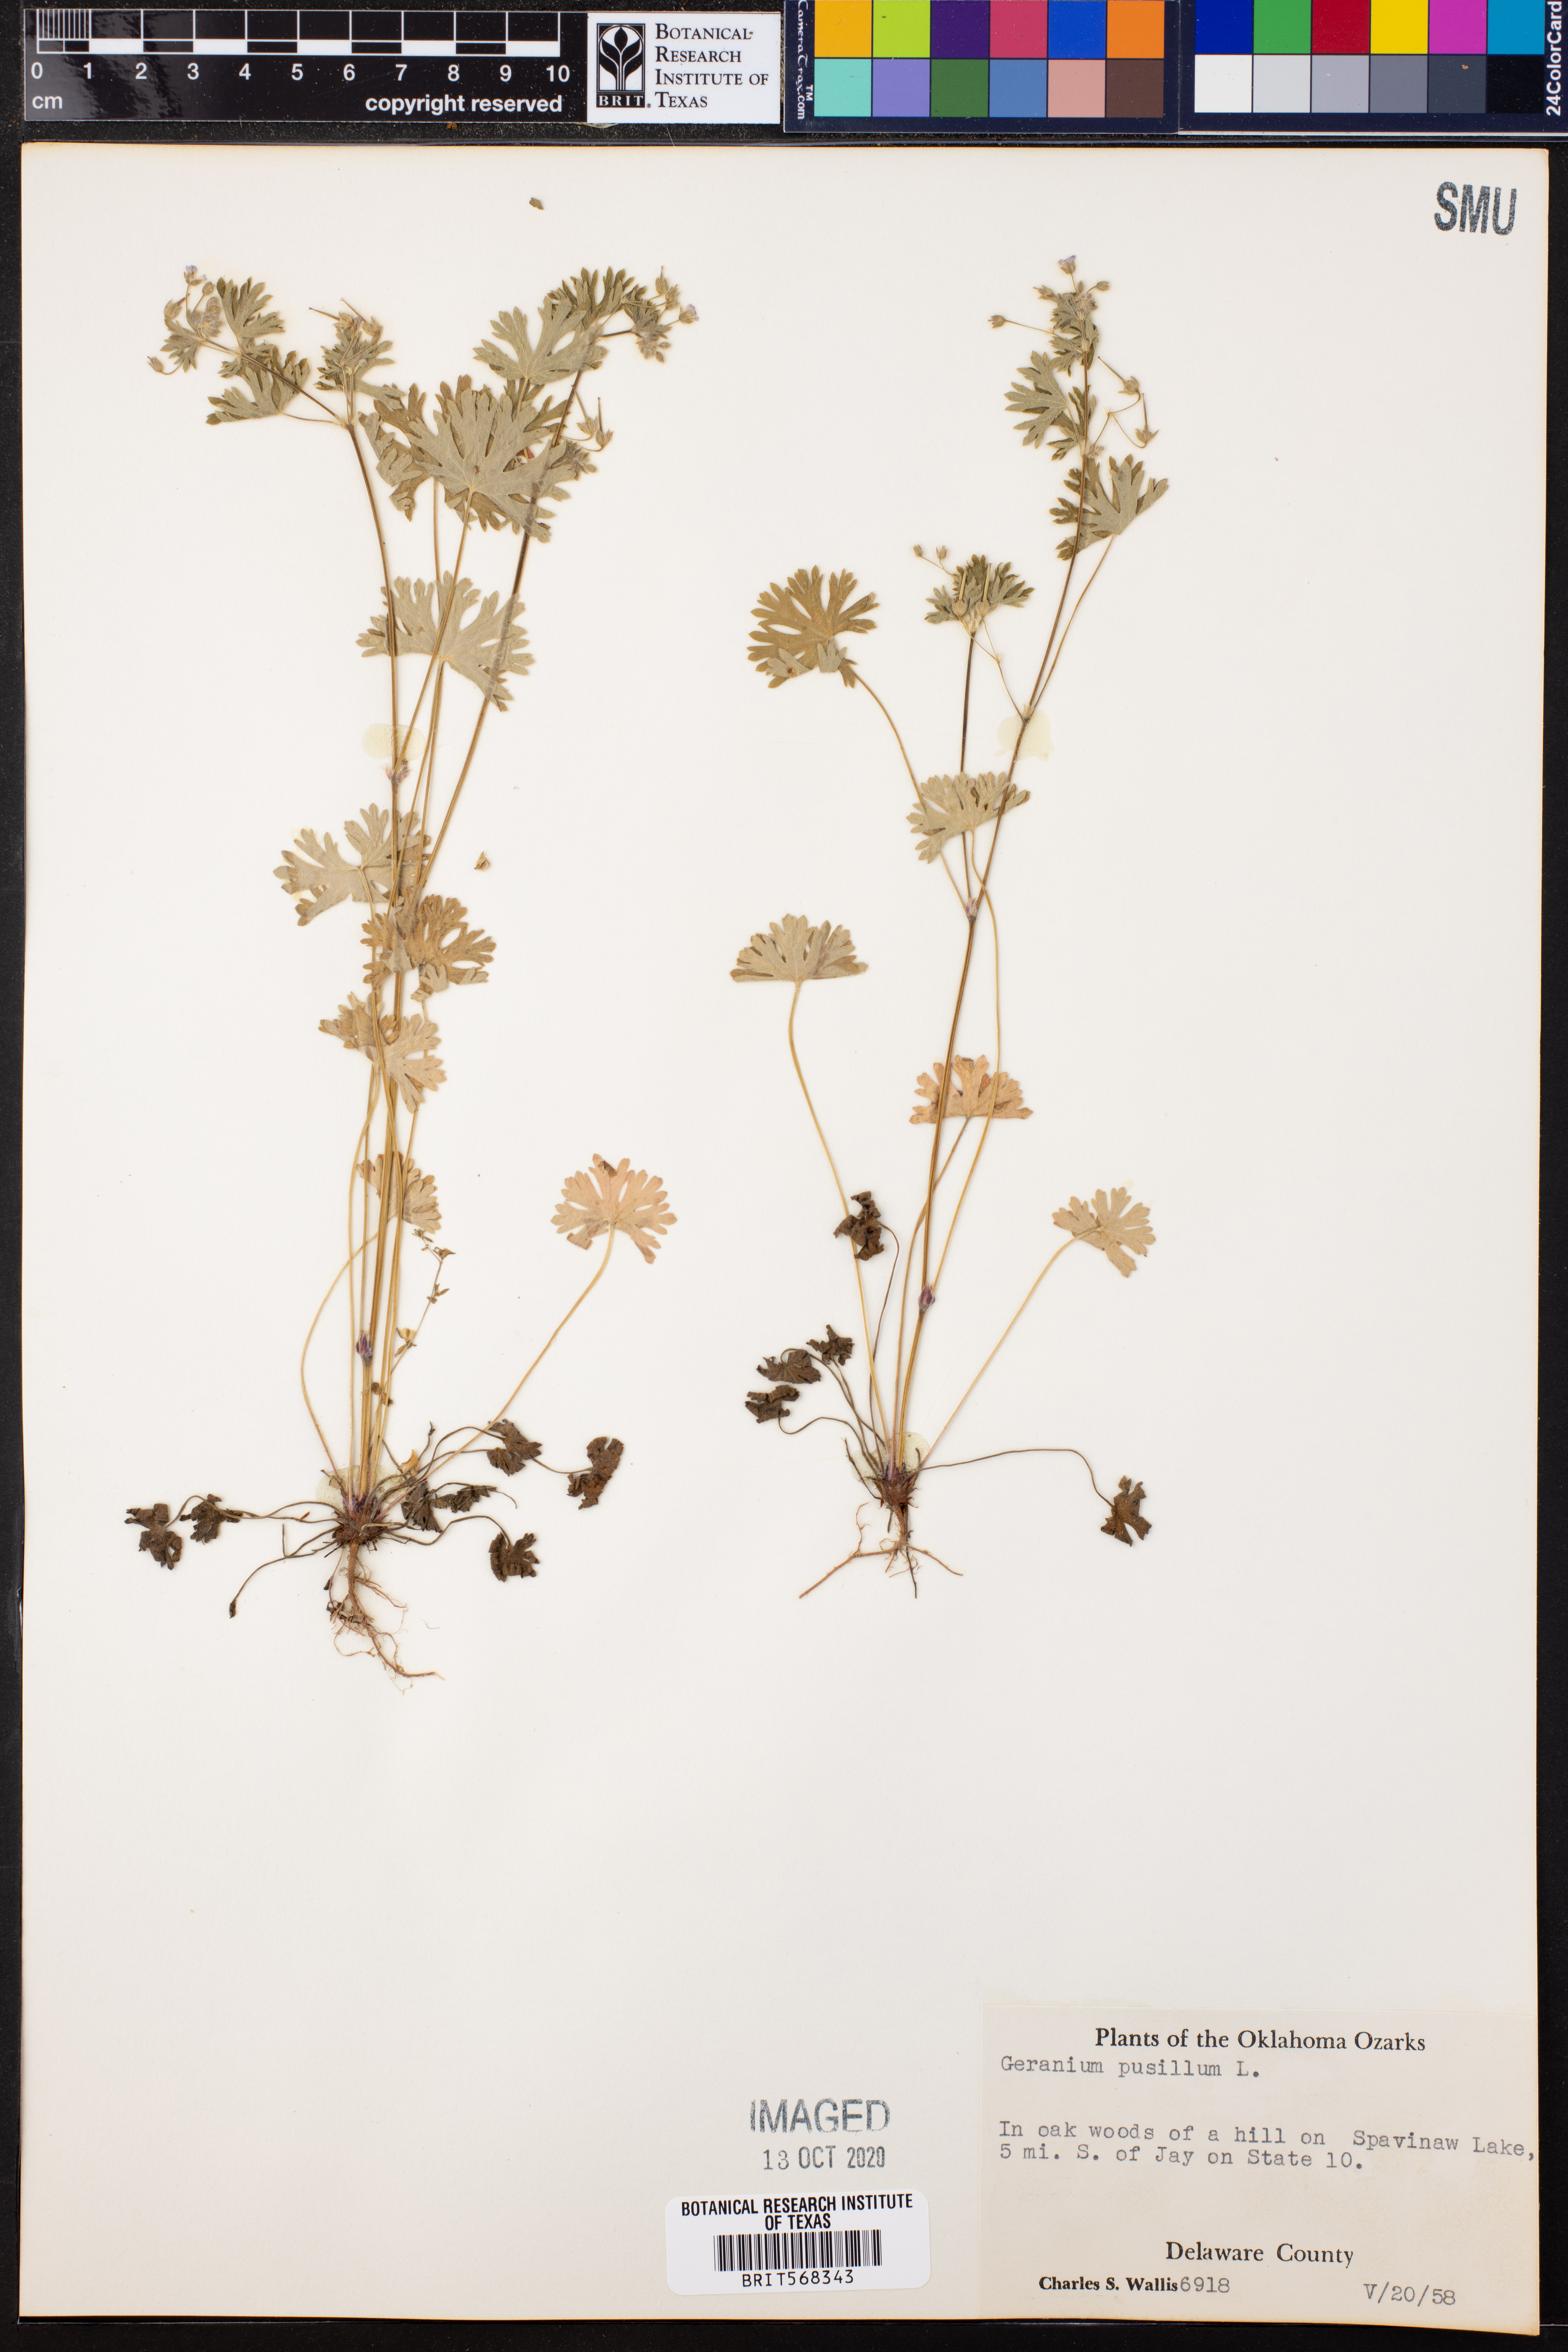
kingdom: Plantae
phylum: Tracheophyta
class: Magnoliopsida
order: Geraniales
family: Geraniaceae
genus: Geranium
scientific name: Geranium pusillum
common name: Small geranium
